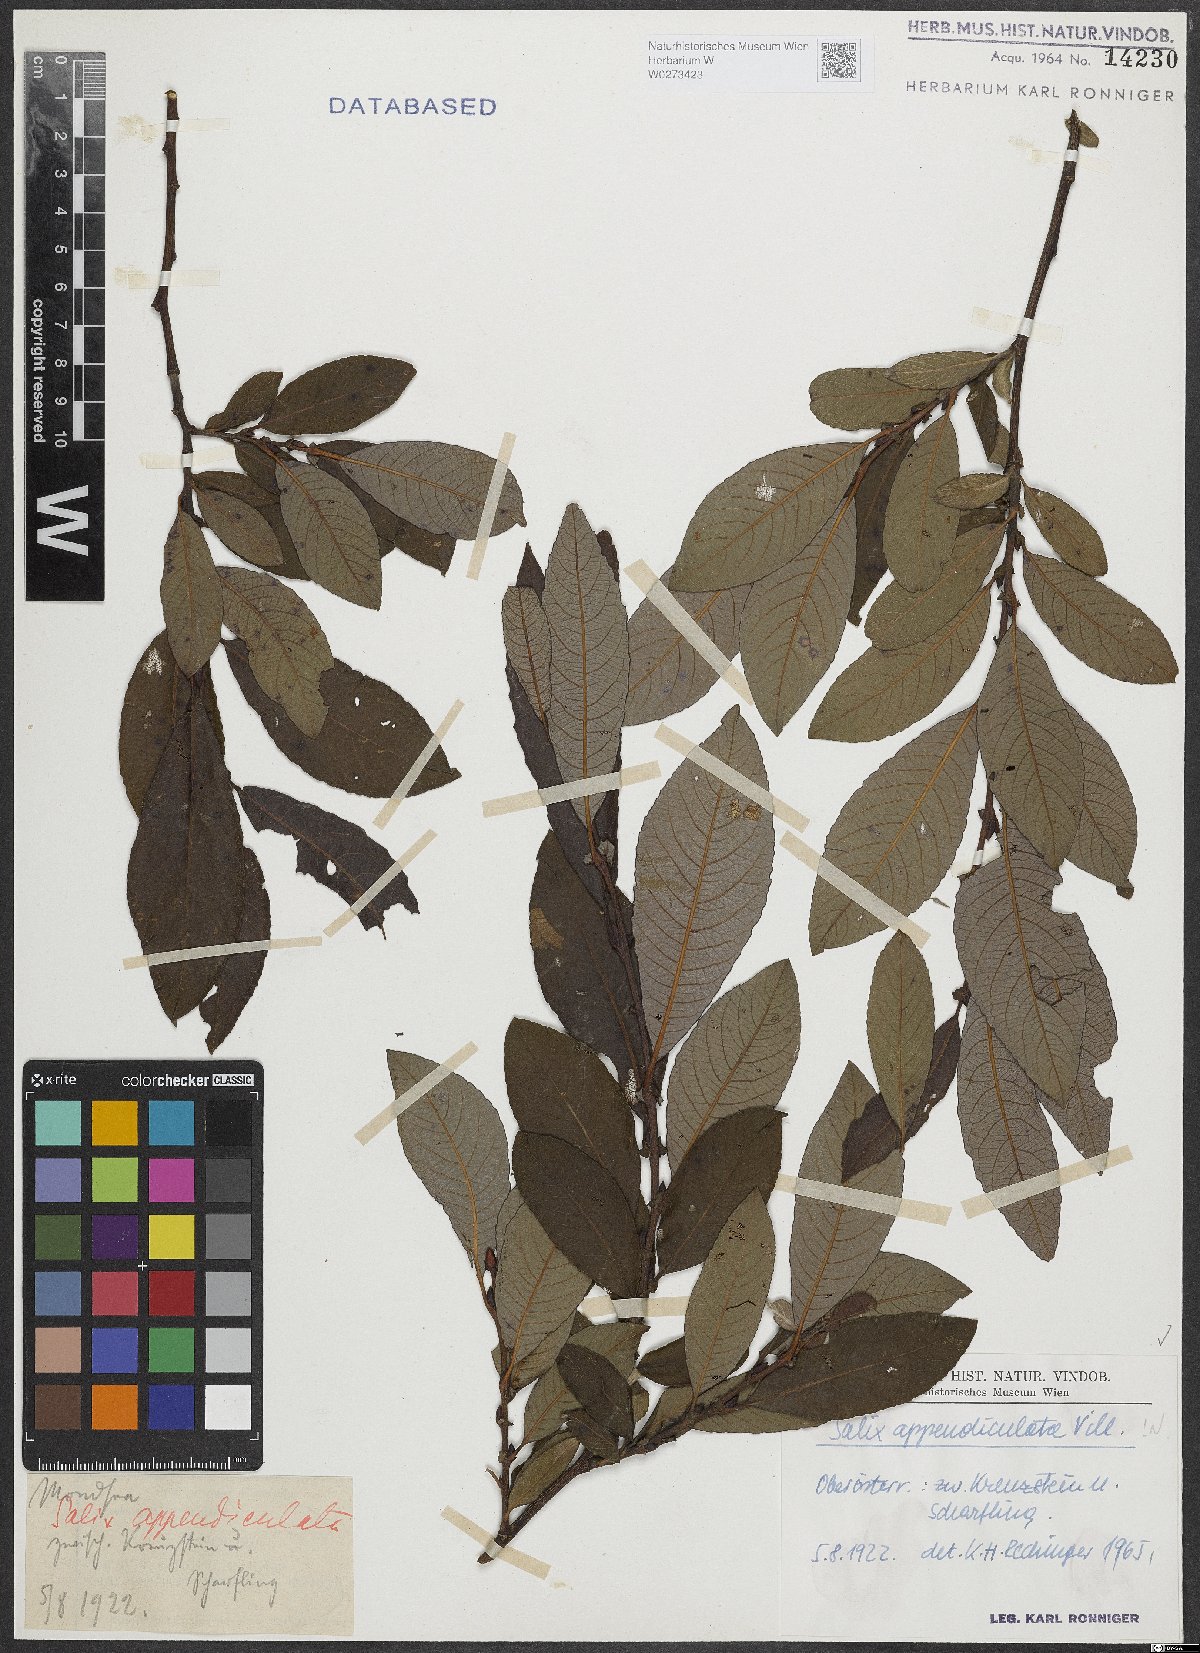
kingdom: Plantae
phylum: Tracheophyta
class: Magnoliopsida
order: Malpighiales
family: Salicaceae
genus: Salix
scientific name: Salix appendiculata
